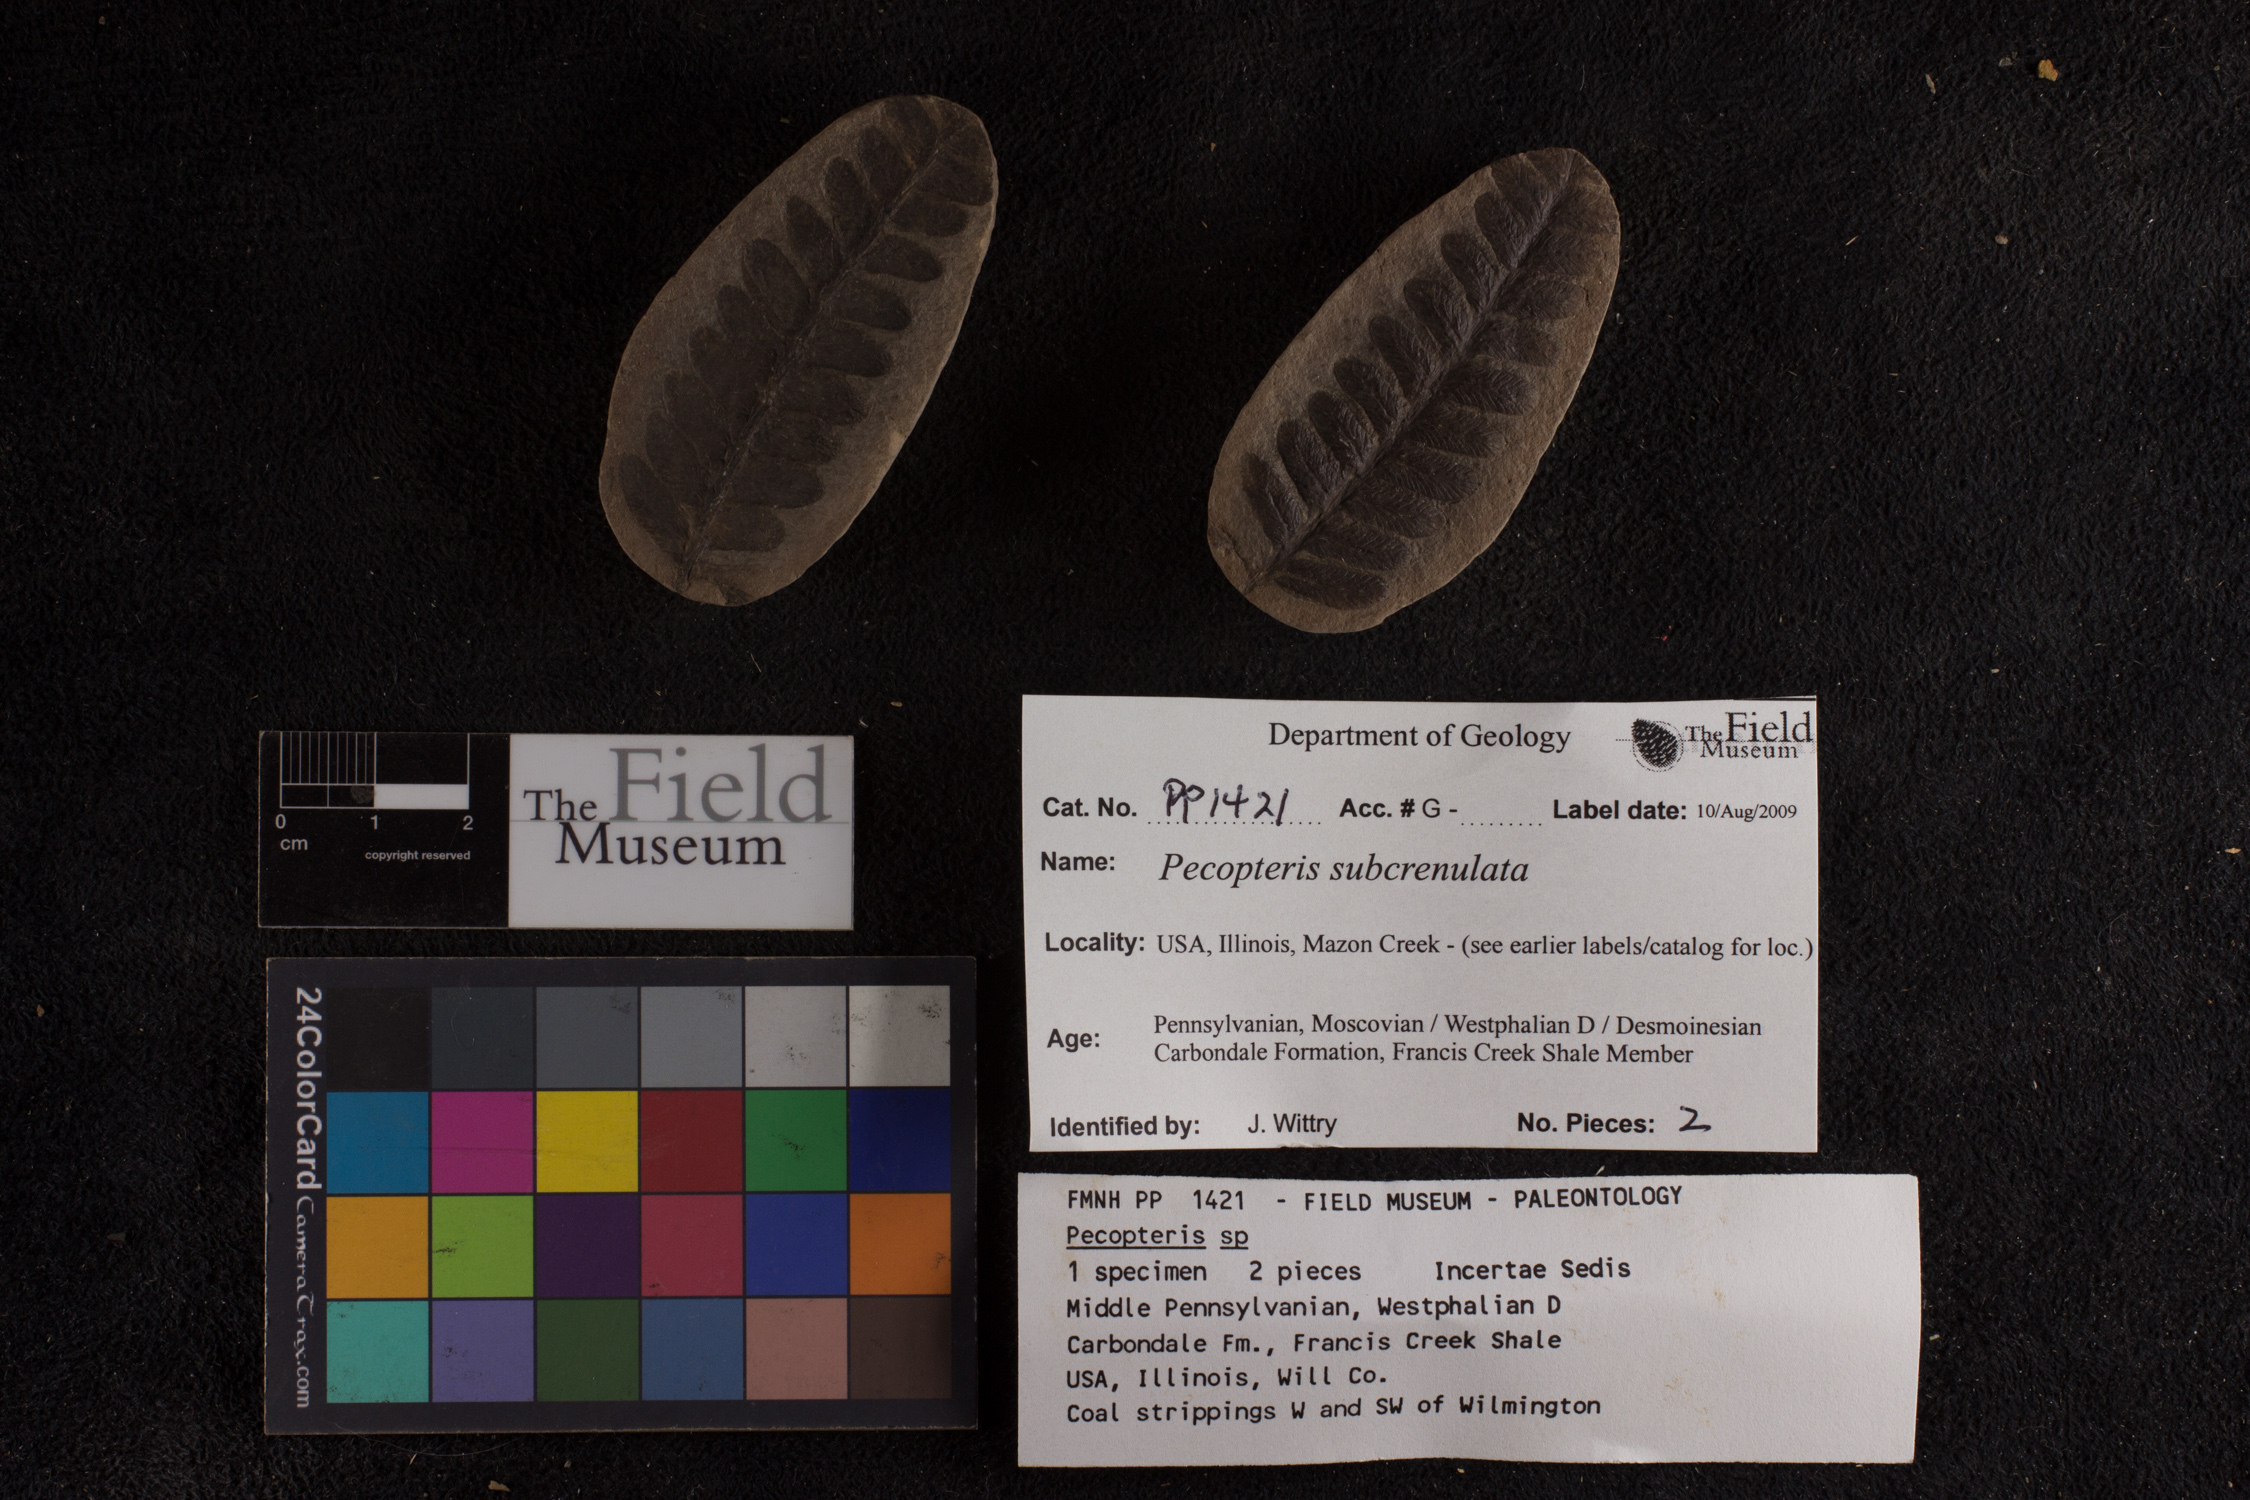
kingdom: Plantae
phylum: Tracheophyta
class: Polypodiopsida
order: Marattiales
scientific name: Marattiales
